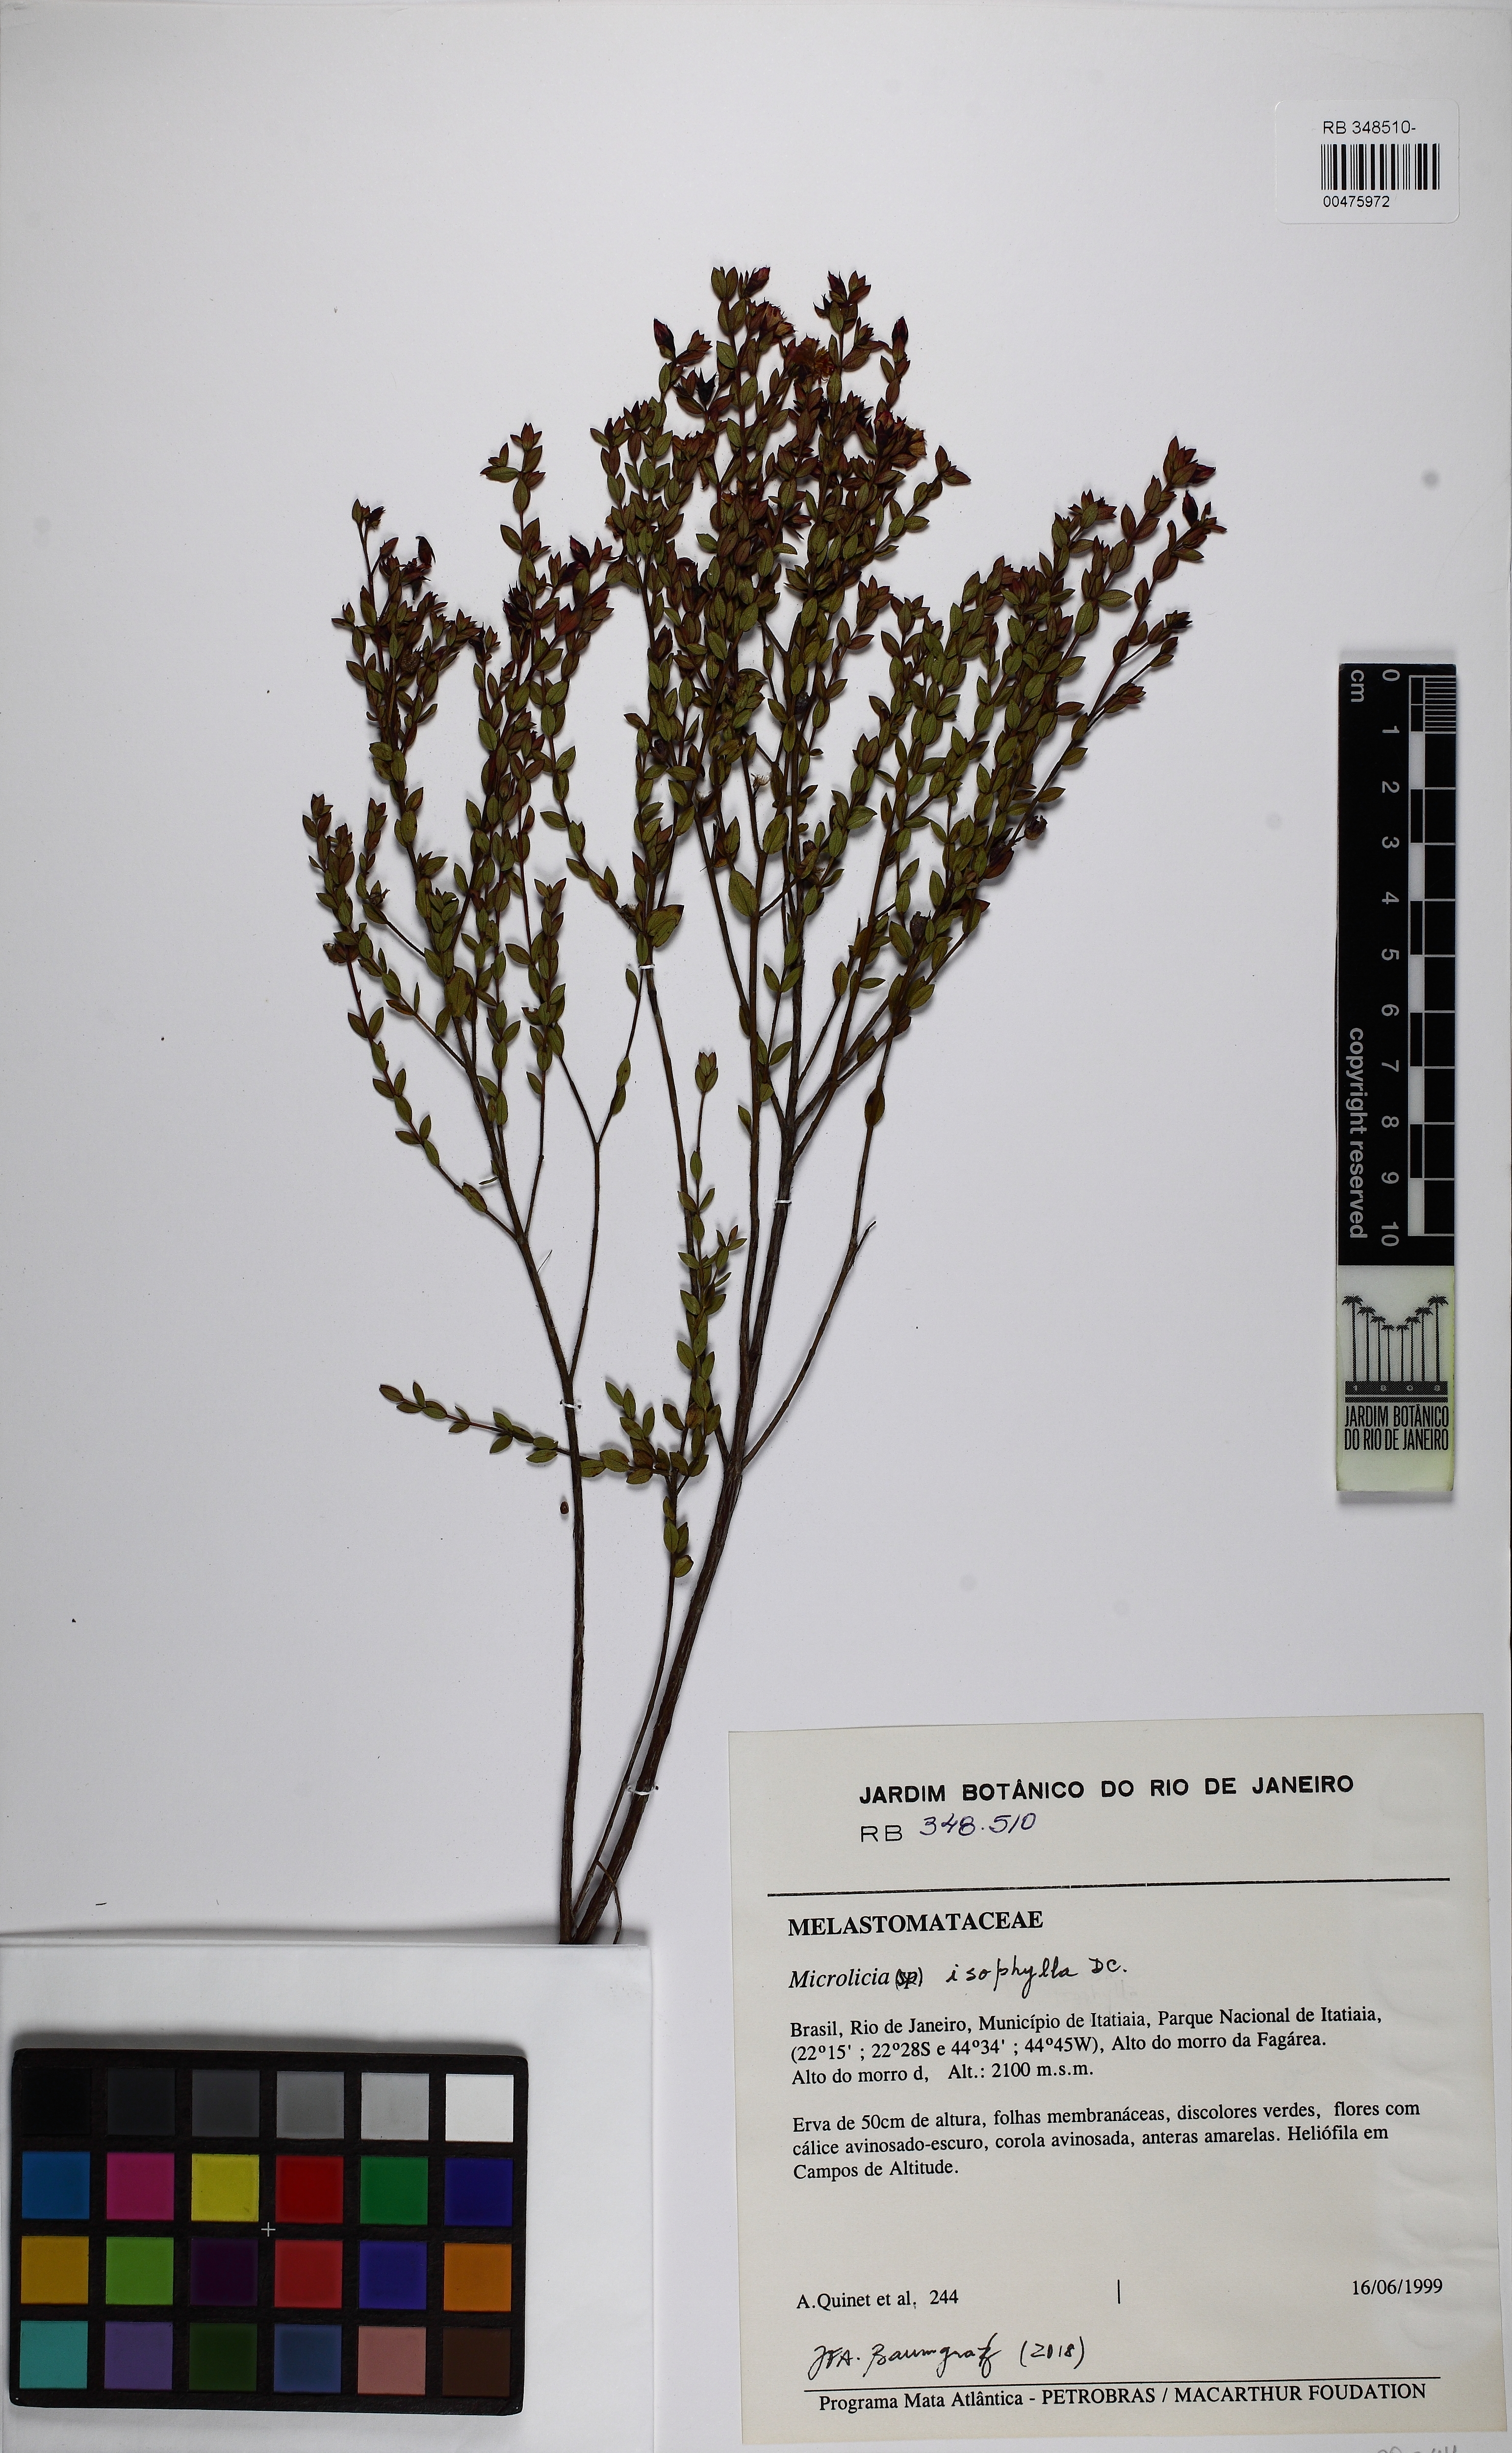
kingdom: Plantae
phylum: Tracheophyta
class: Magnoliopsida
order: Myrtales
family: Melastomataceae
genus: Microlicia
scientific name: Microlicia isophylla
